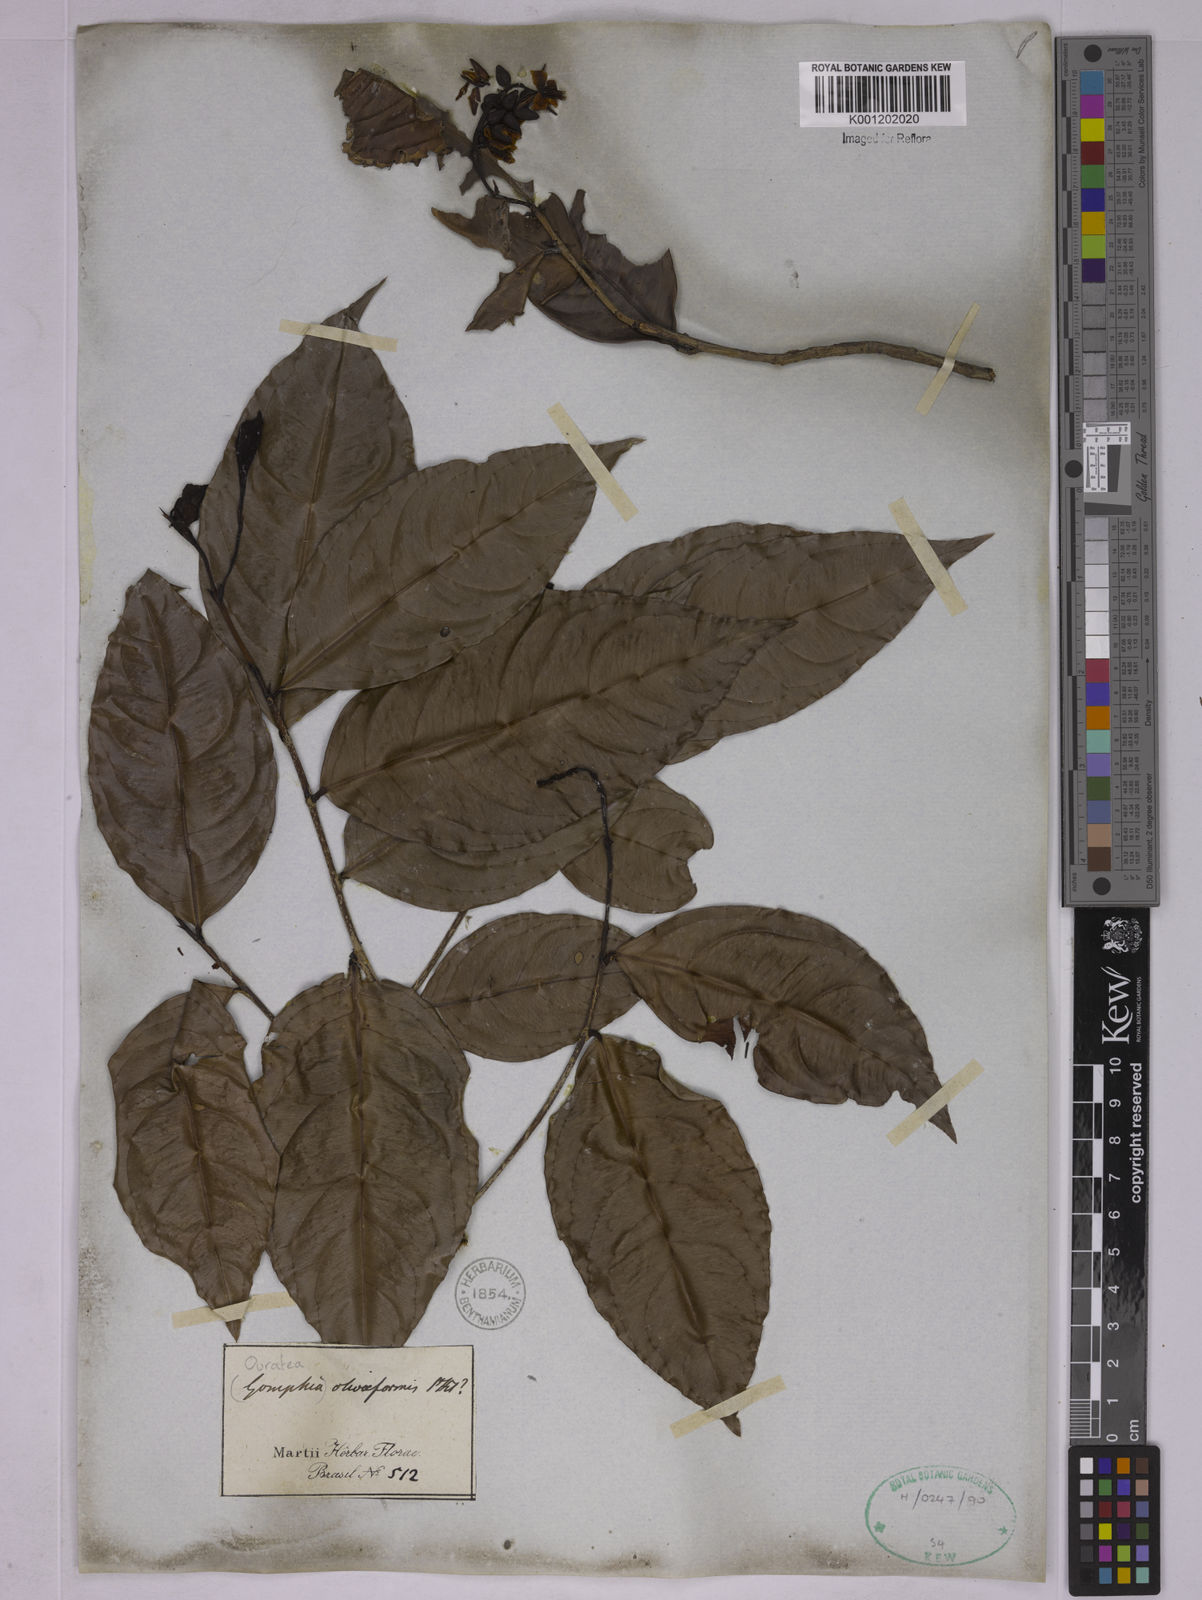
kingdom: Plantae
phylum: Tracheophyta
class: Magnoliopsida
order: Malpighiales
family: Ochnaceae
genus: Ouratea
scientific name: Ouratea oliviformis
